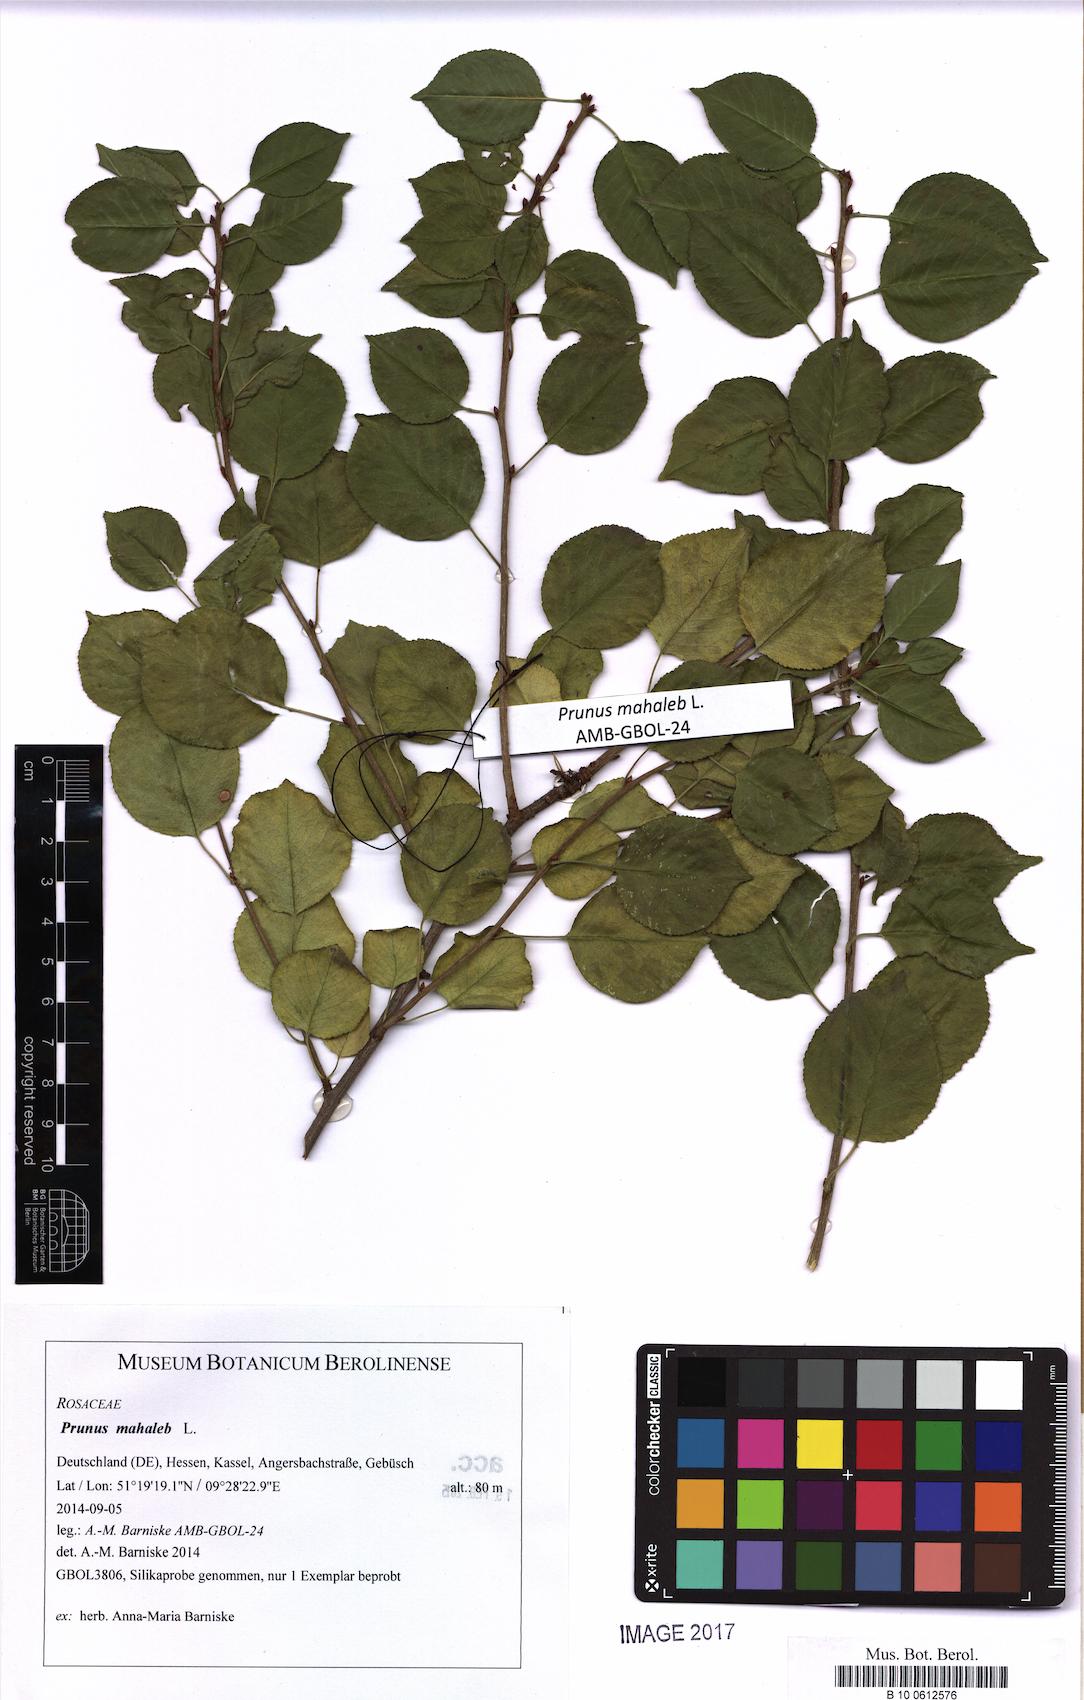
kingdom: Plantae
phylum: Tracheophyta
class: Magnoliopsida
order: Rosales
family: Rosaceae
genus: Prunus
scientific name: Prunus mahaleb
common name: Mahaleb cherry
